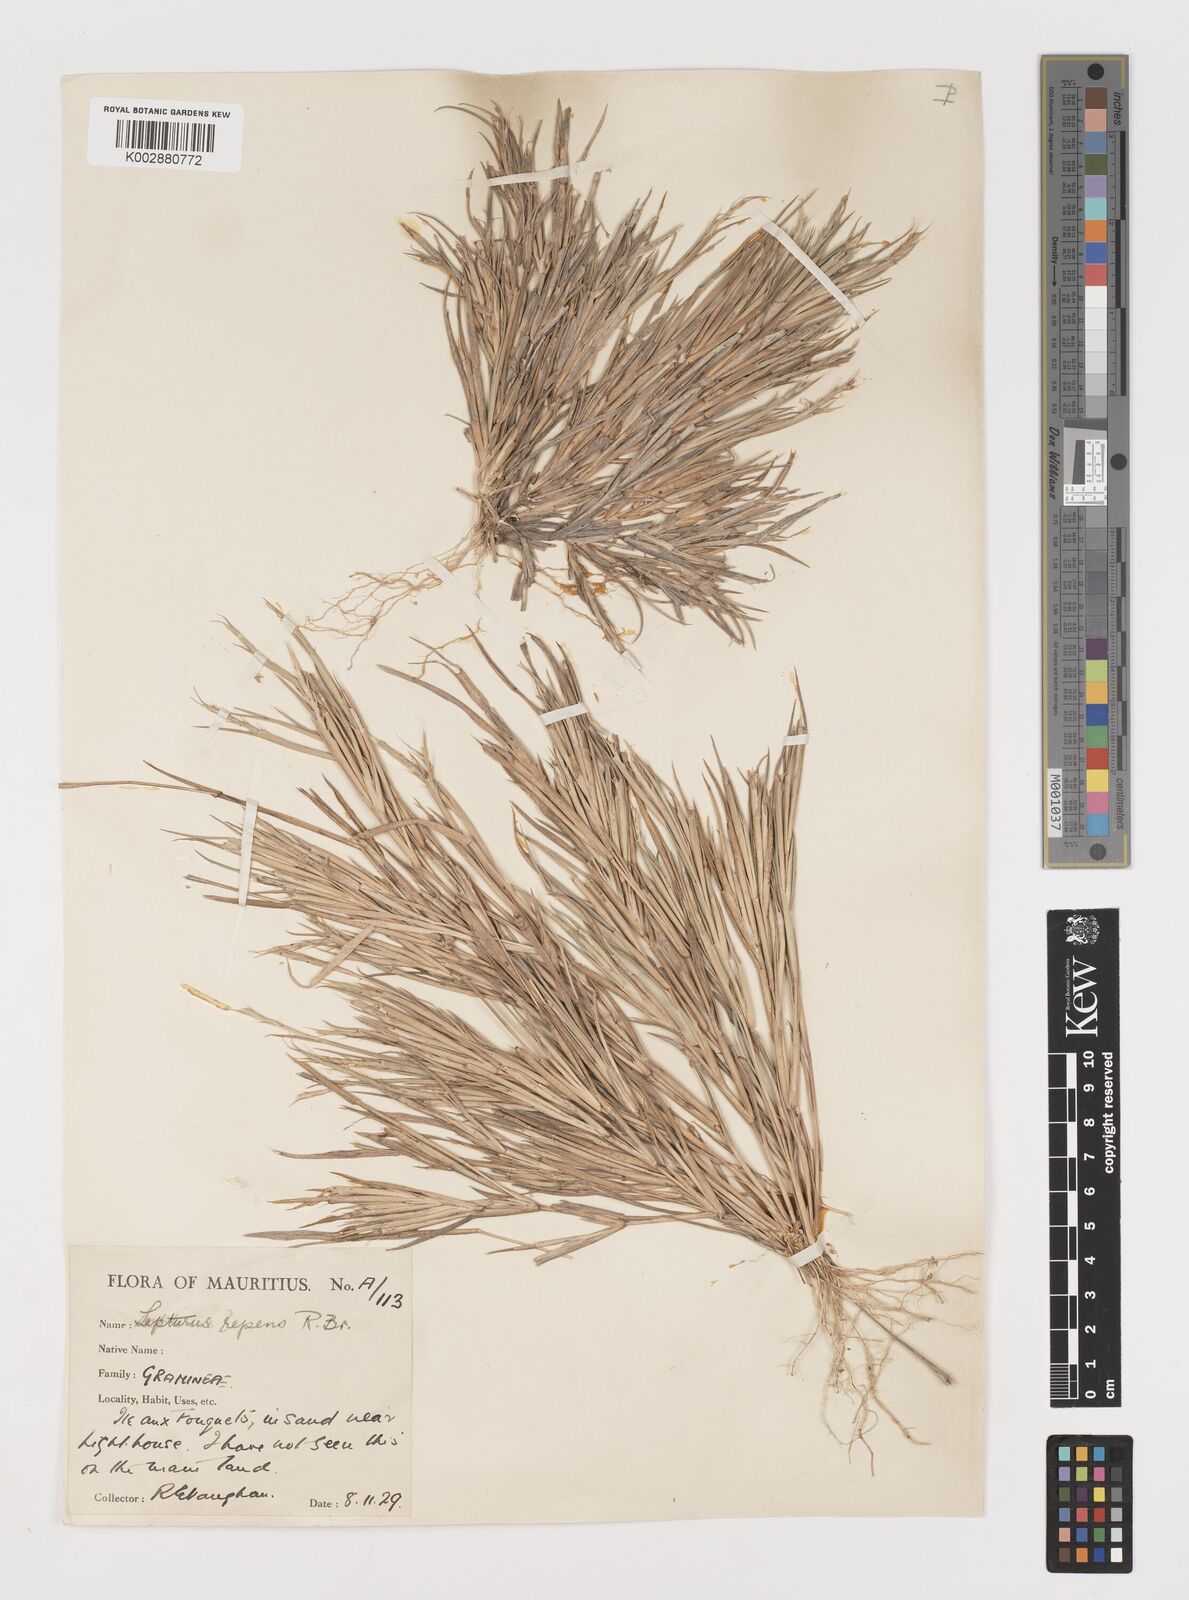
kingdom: Plantae
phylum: Tracheophyta
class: Liliopsida
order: Poales
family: Poaceae
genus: Lepturus
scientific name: Lepturus repens
